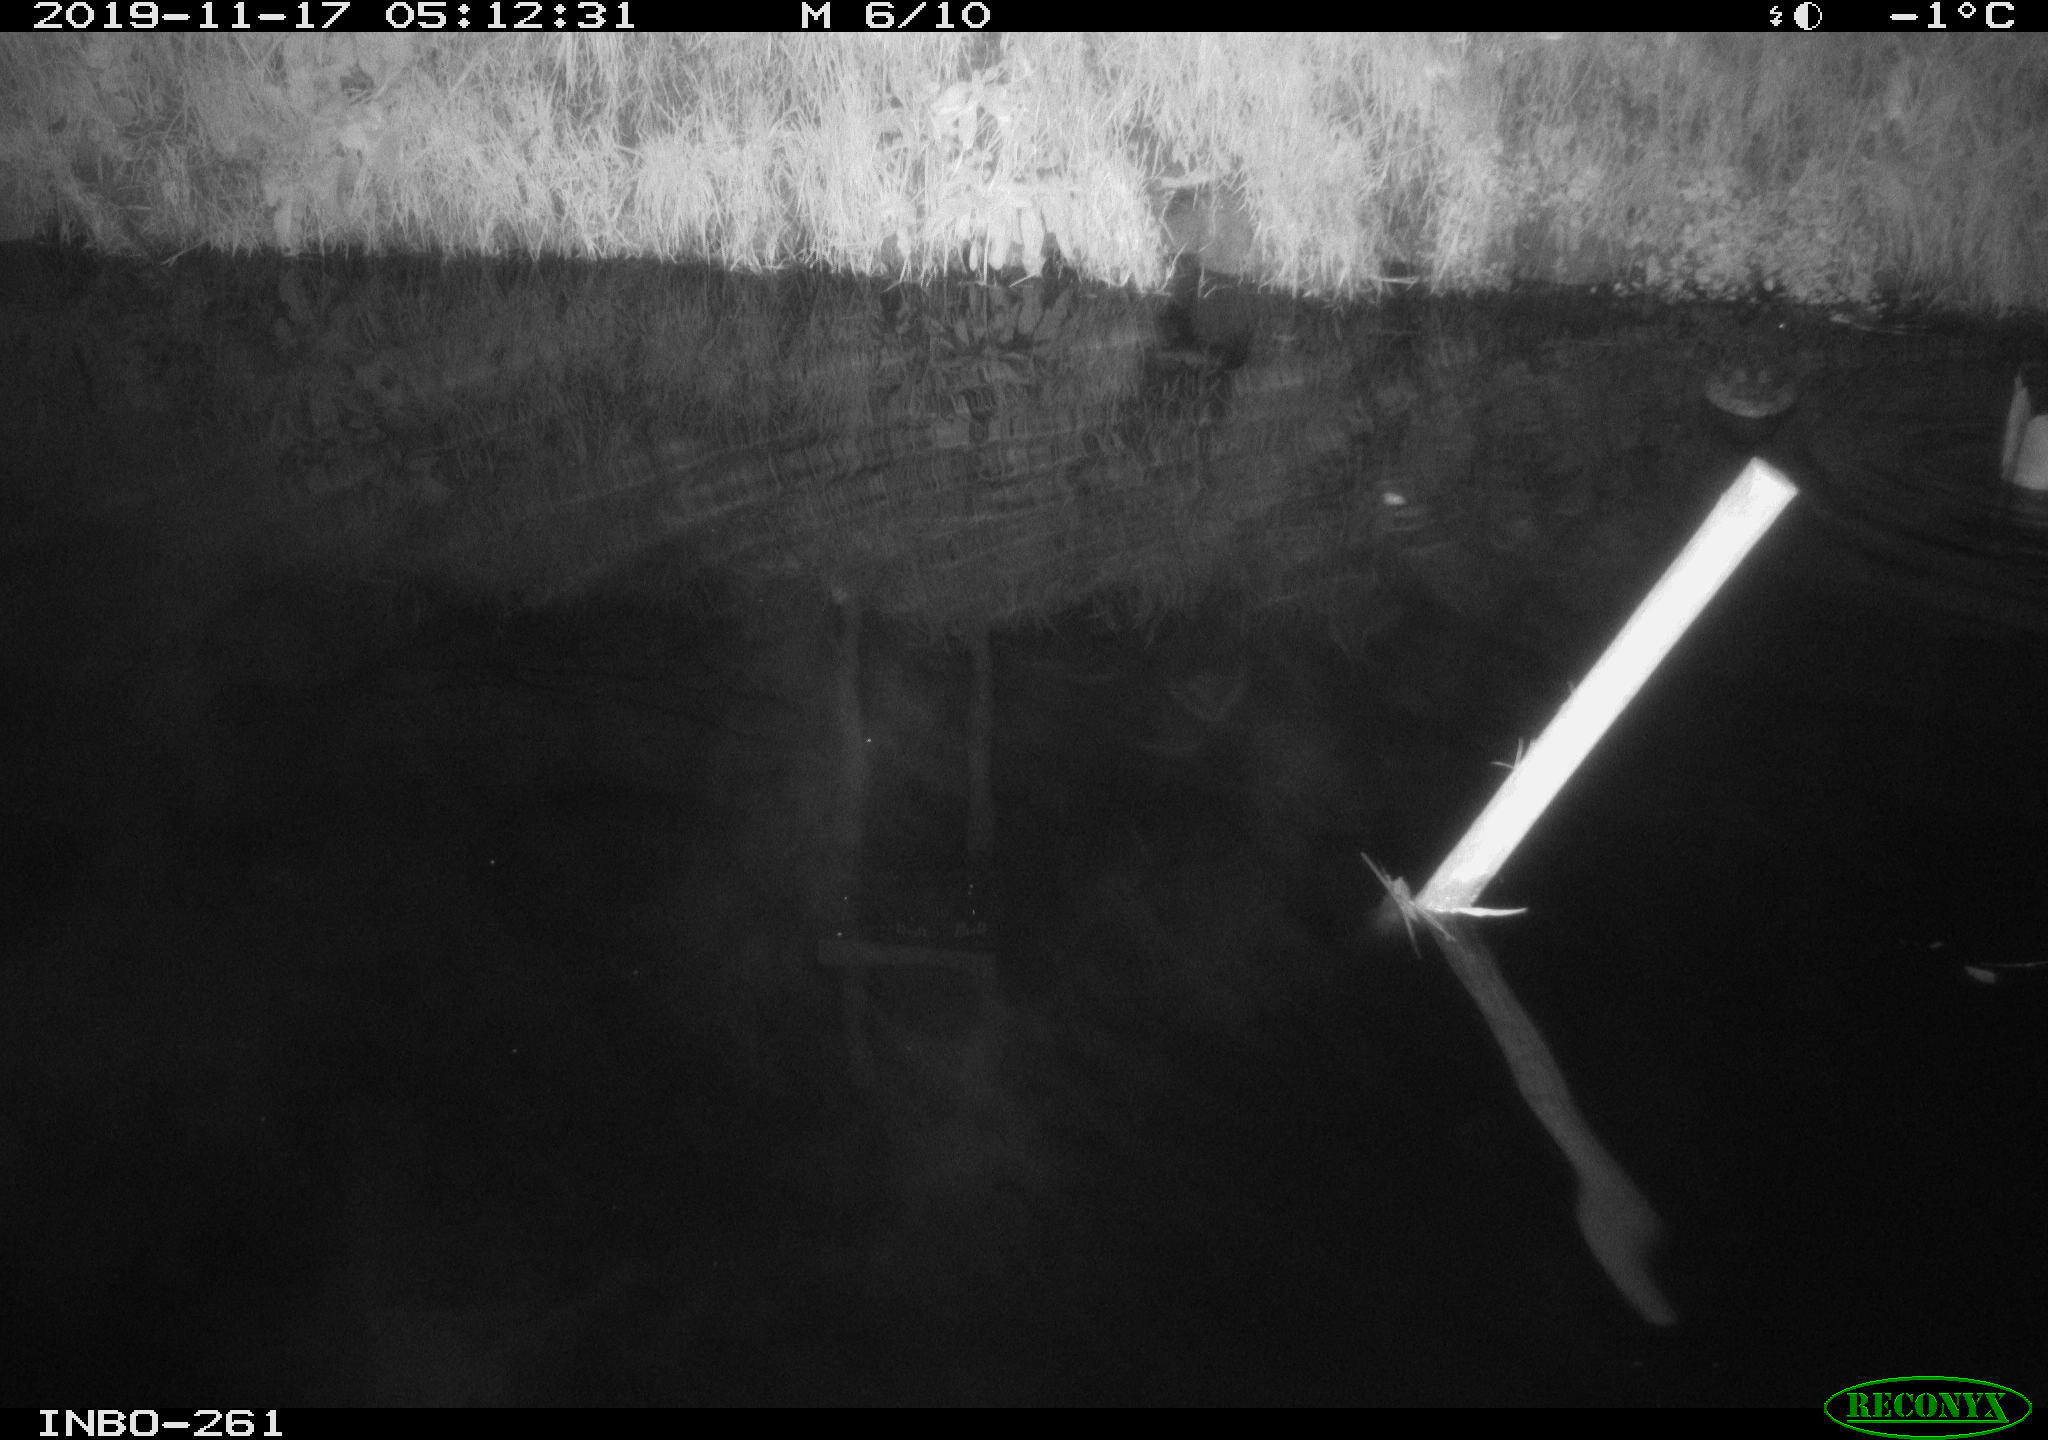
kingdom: Animalia
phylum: Chordata
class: Aves
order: Anseriformes
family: Anatidae
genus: Anas
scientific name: Anas platyrhynchos
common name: Mallard
